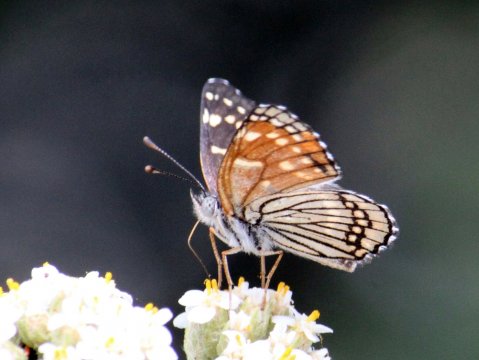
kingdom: Animalia
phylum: Arthropoda
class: Insecta
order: Lepidoptera
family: Nymphalidae
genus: Thessalia
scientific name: Thessalia leanira
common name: Black Checkerspot
